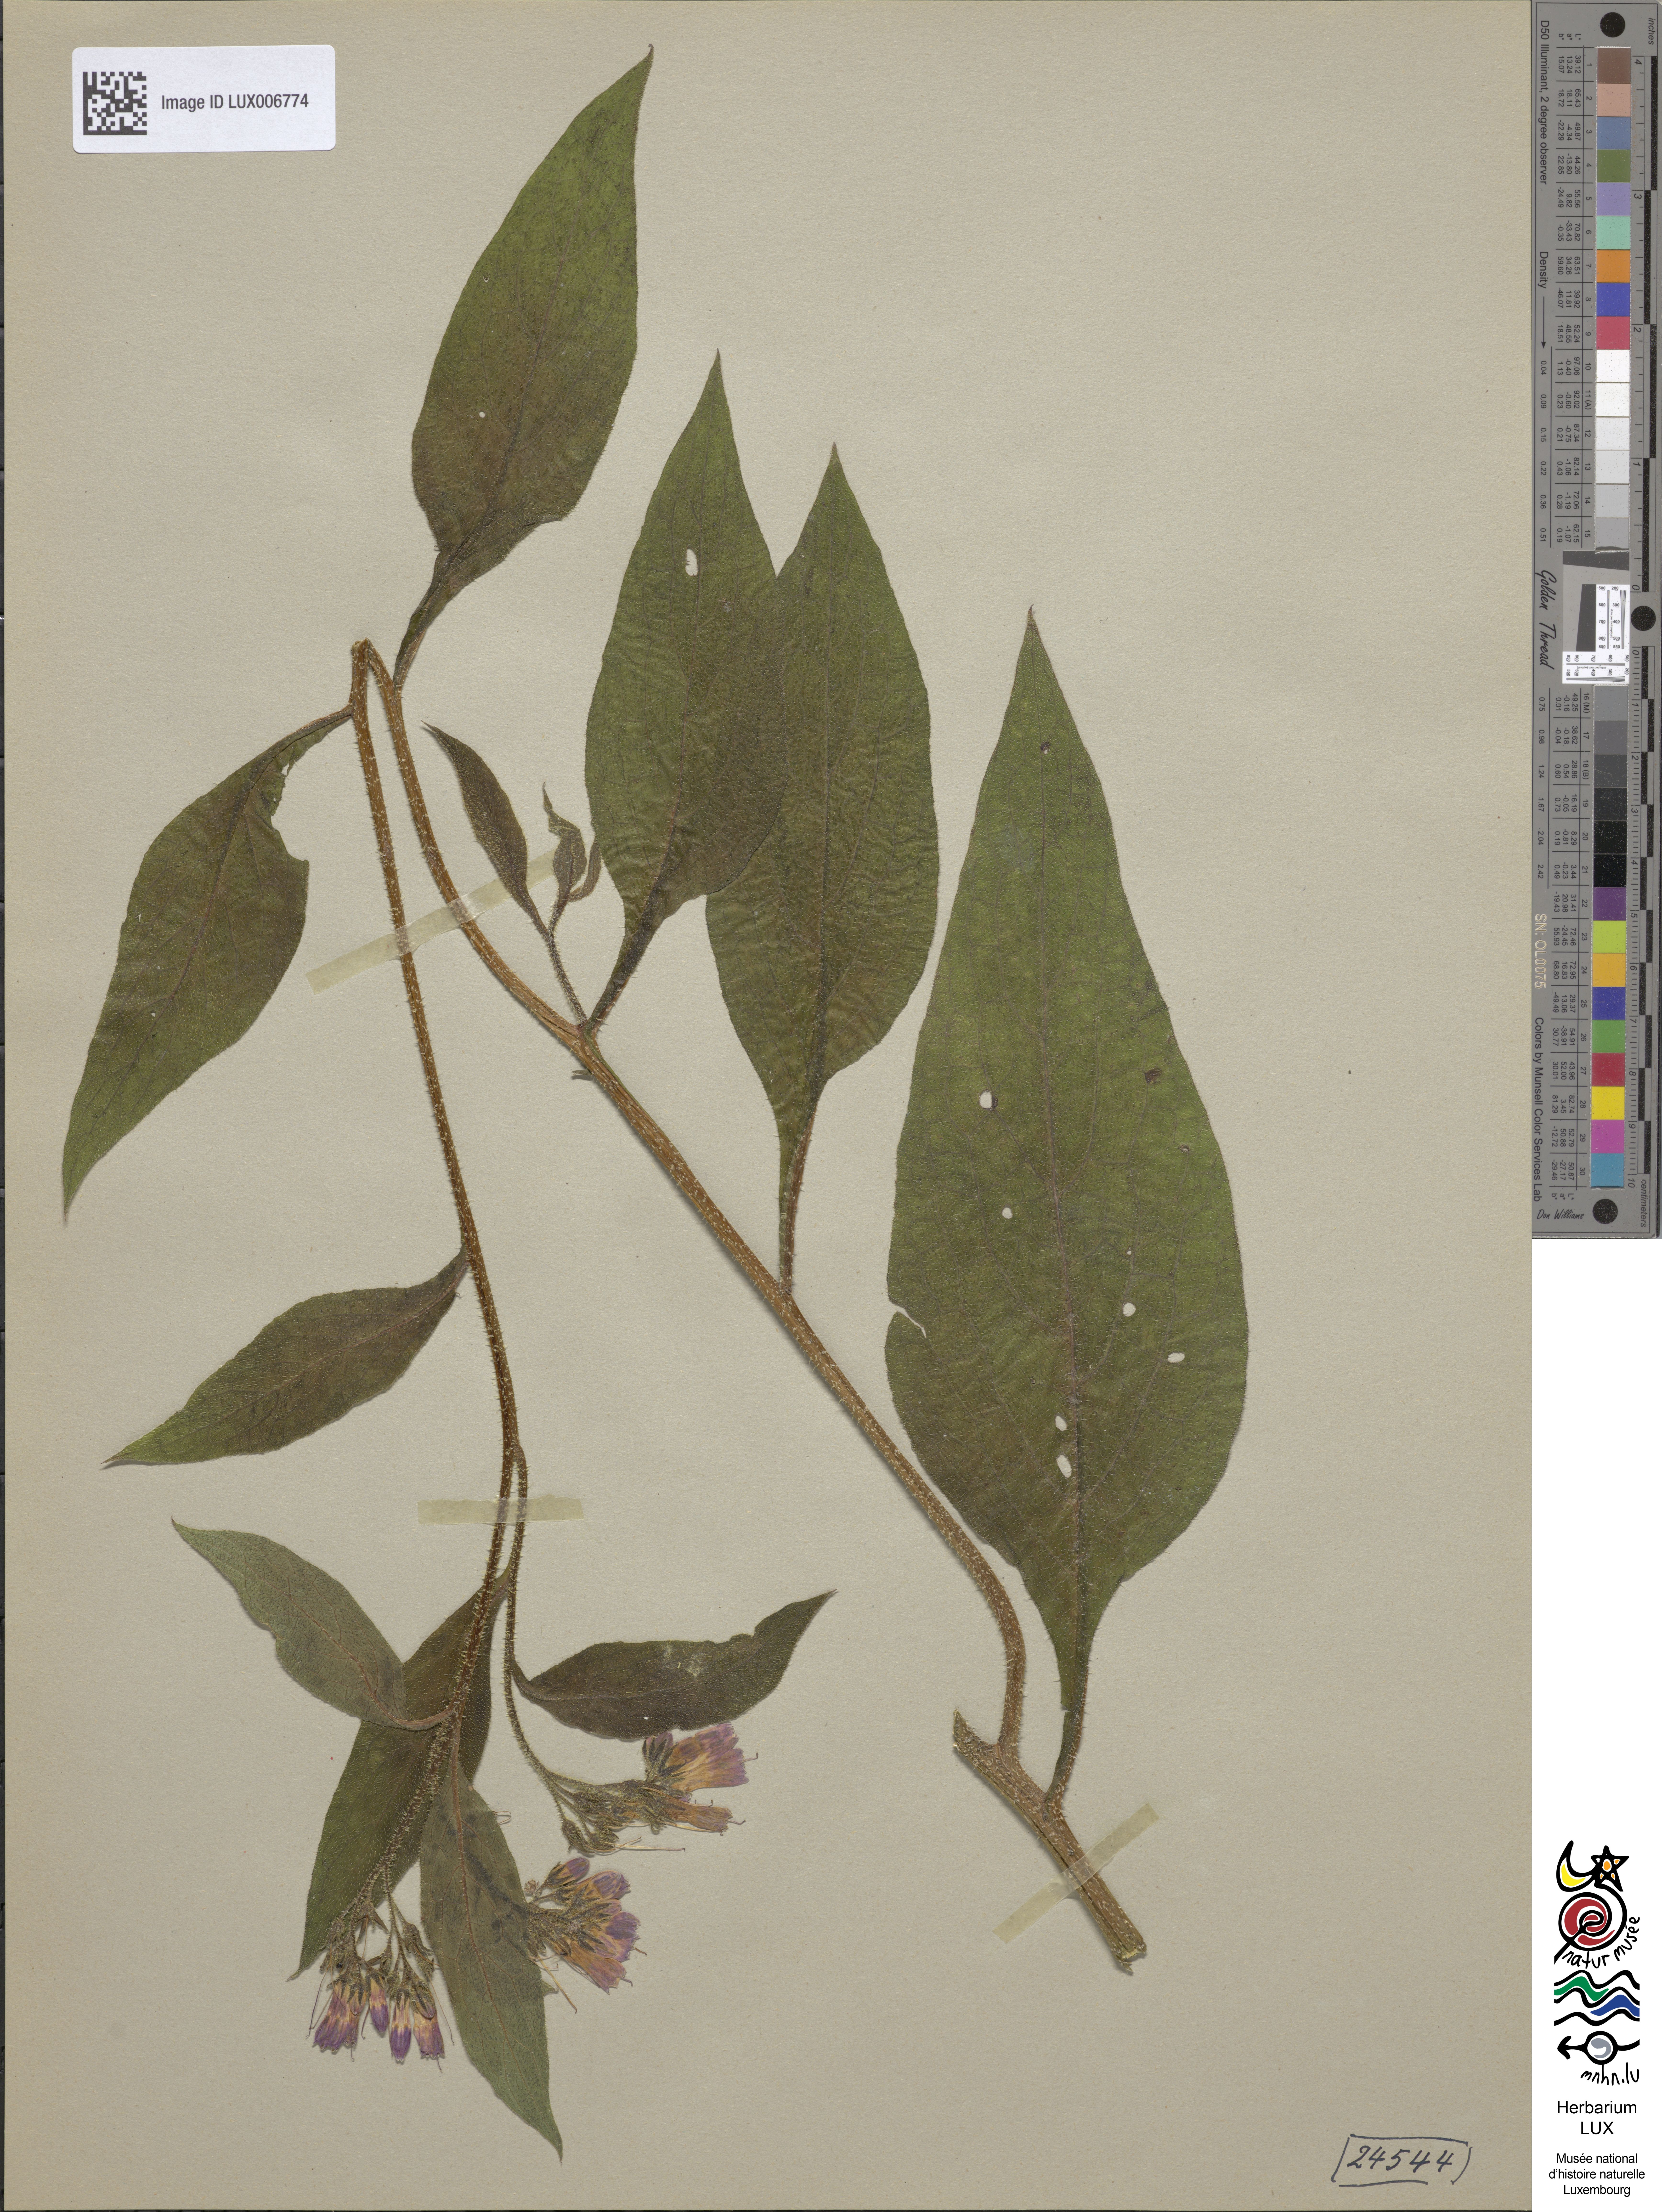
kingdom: Plantae
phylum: Tracheophyta
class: Magnoliopsida
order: Boraginales
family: Boraginaceae
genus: Symphytum
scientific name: Symphytum uplandicum
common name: Russian comfrey
